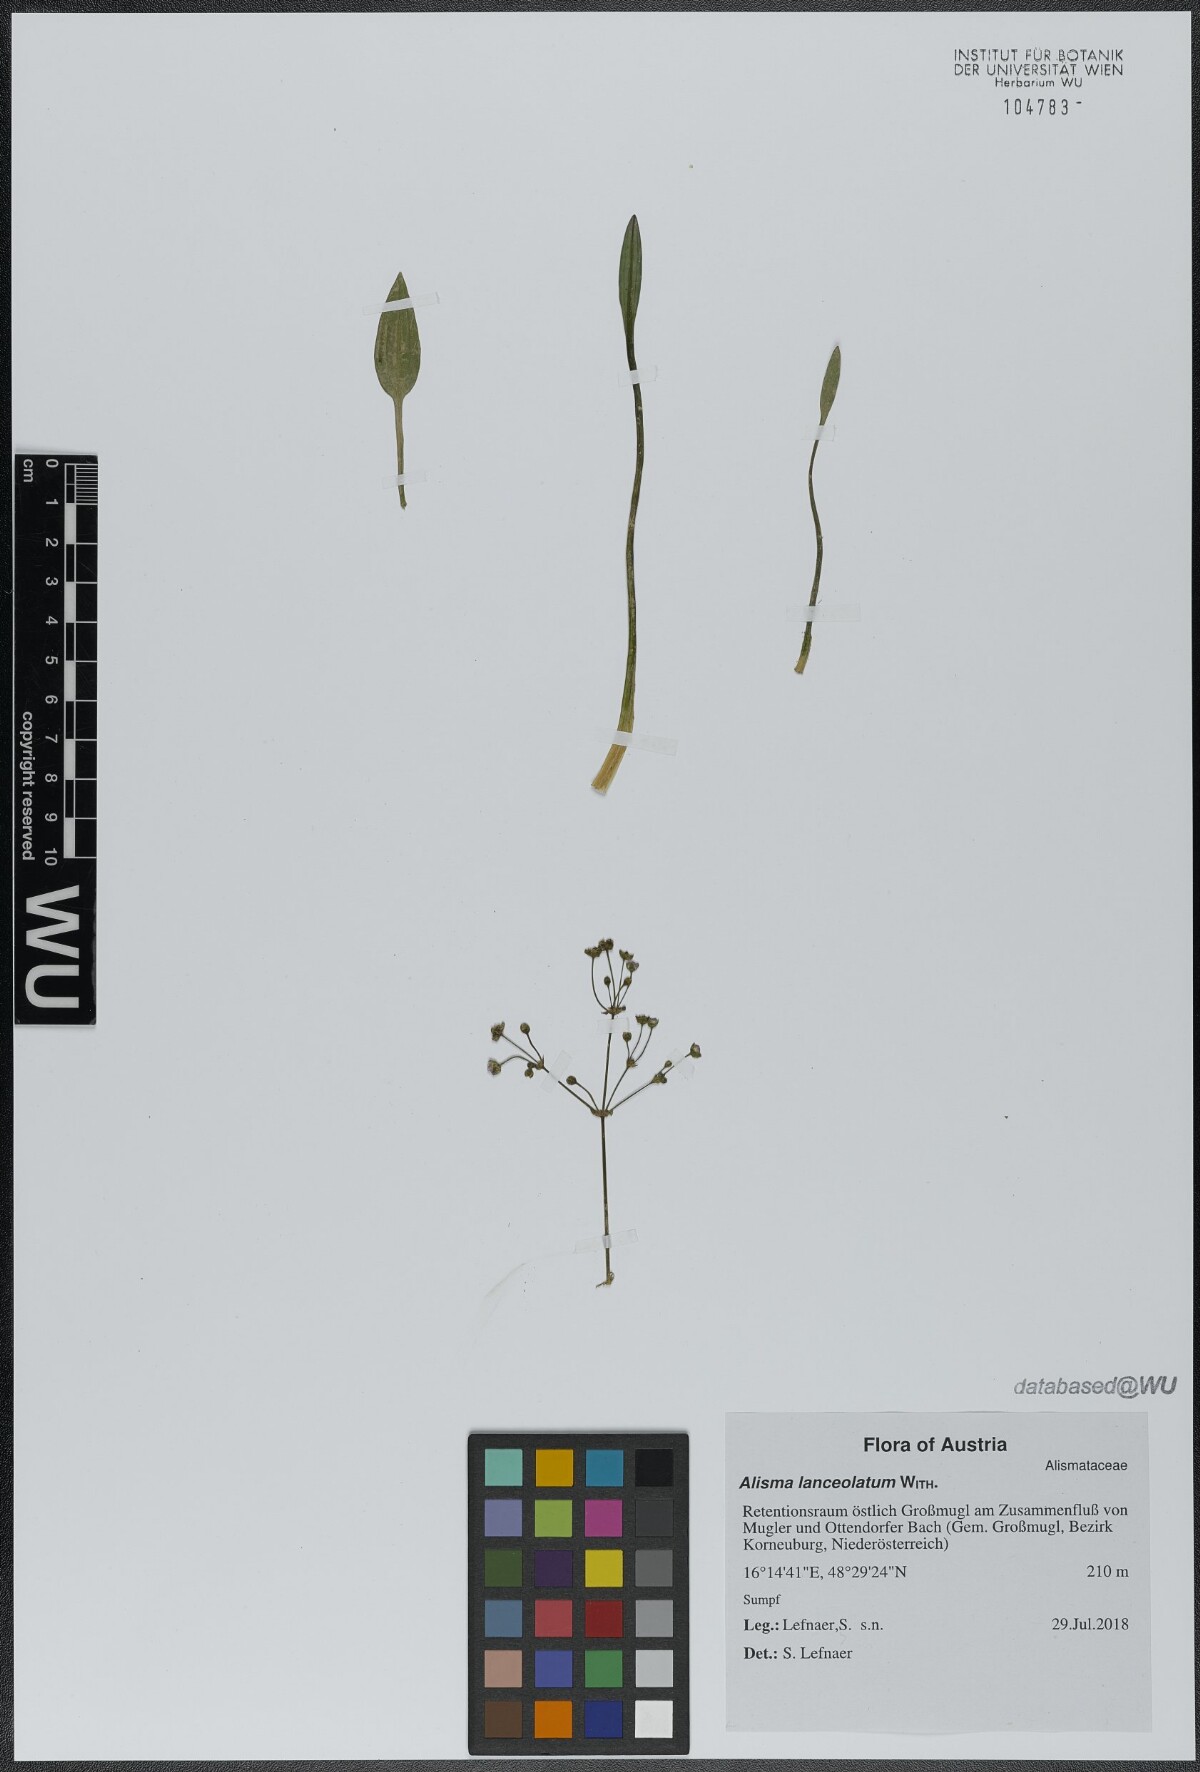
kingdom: Plantae
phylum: Tracheophyta
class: Liliopsida
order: Alismatales
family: Alismataceae
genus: Alisma
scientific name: Alisma lanceolatum
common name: Narrow-leaved water-plantain
